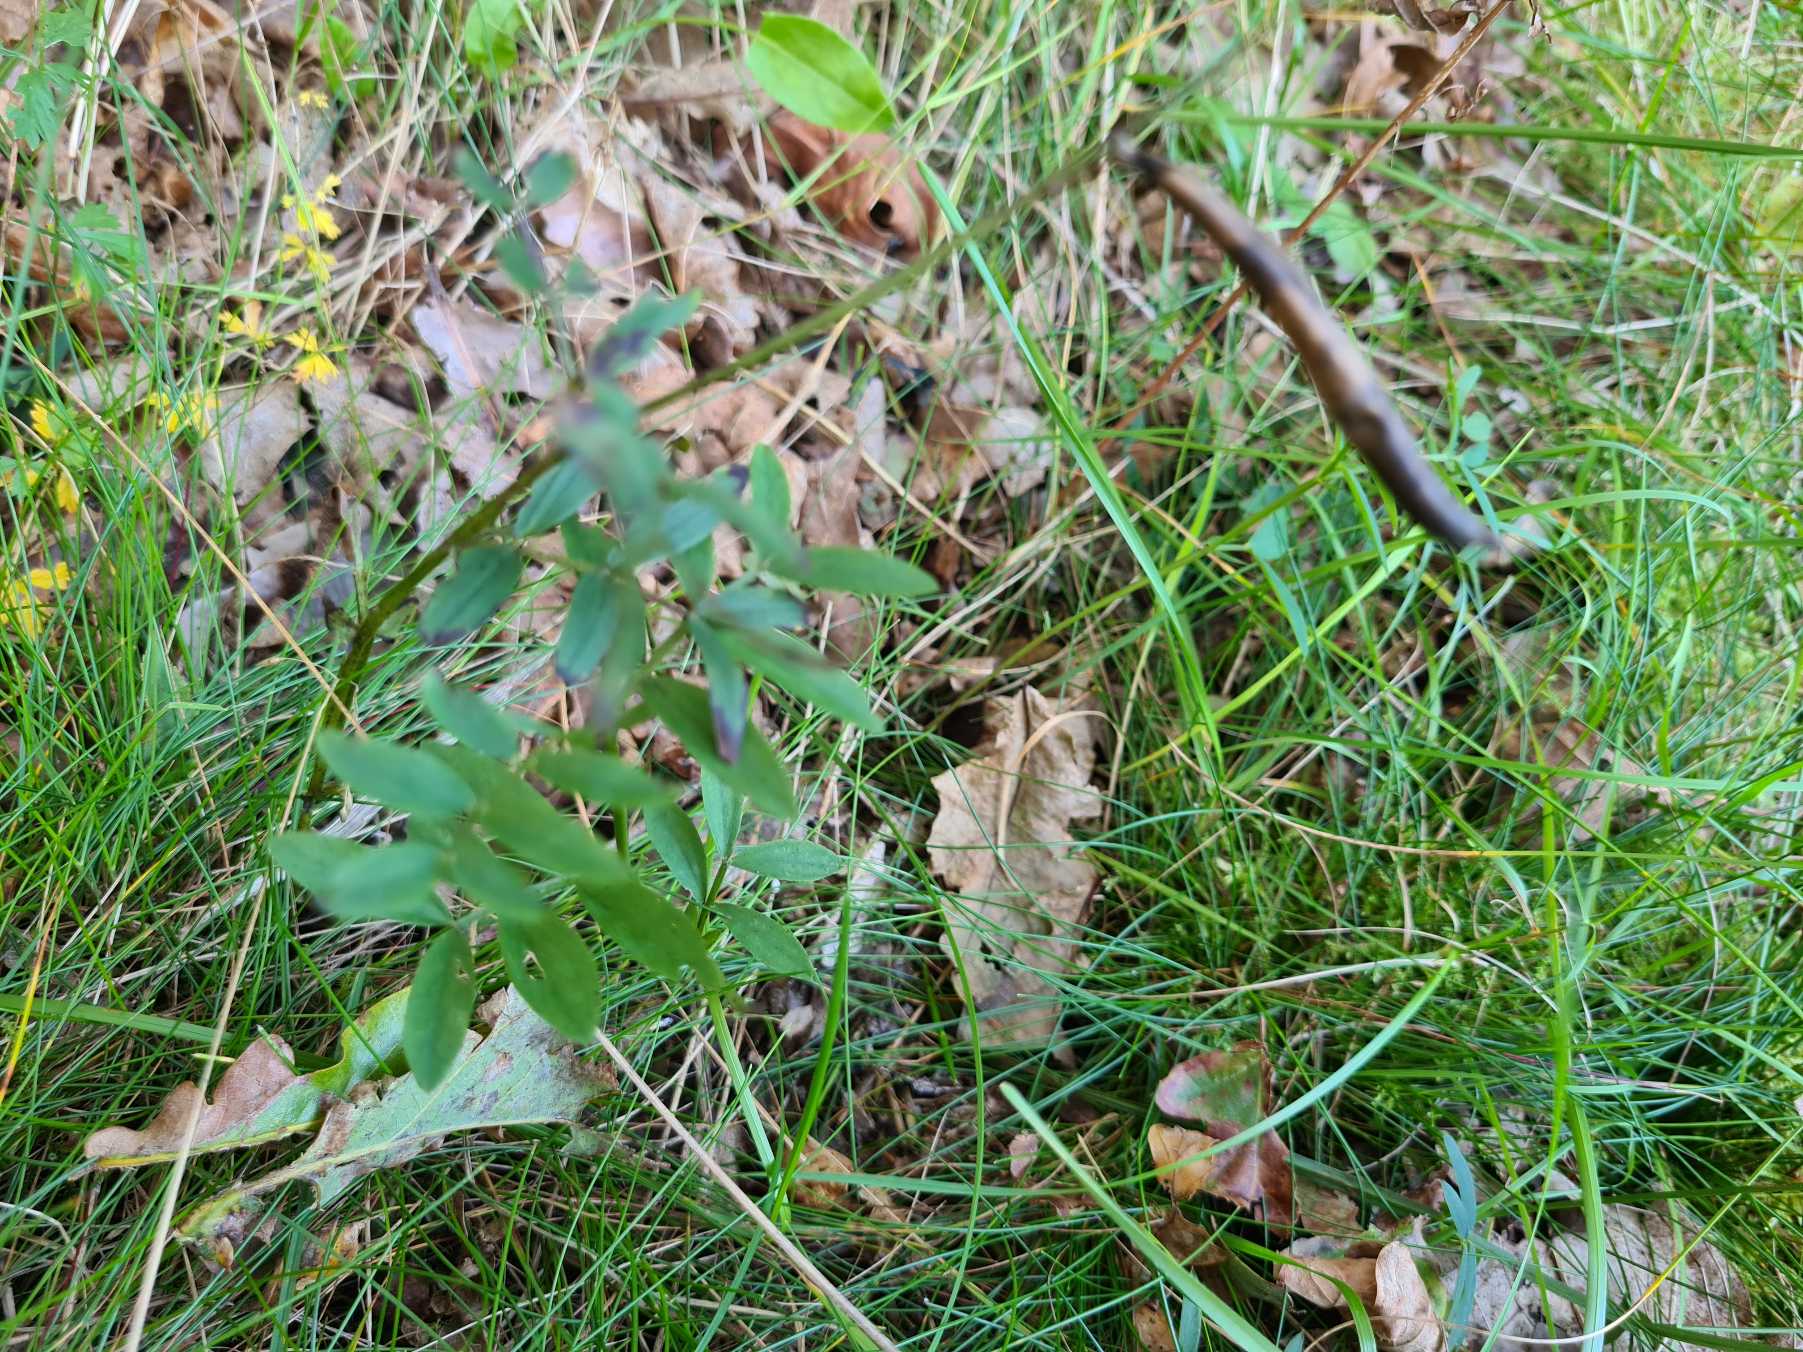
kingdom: Plantae
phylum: Tracheophyta
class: Magnoliopsida
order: Fabales
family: Fabaceae
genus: Lathyrus
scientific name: Lathyrus linifolius
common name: Krat-fladbælg
